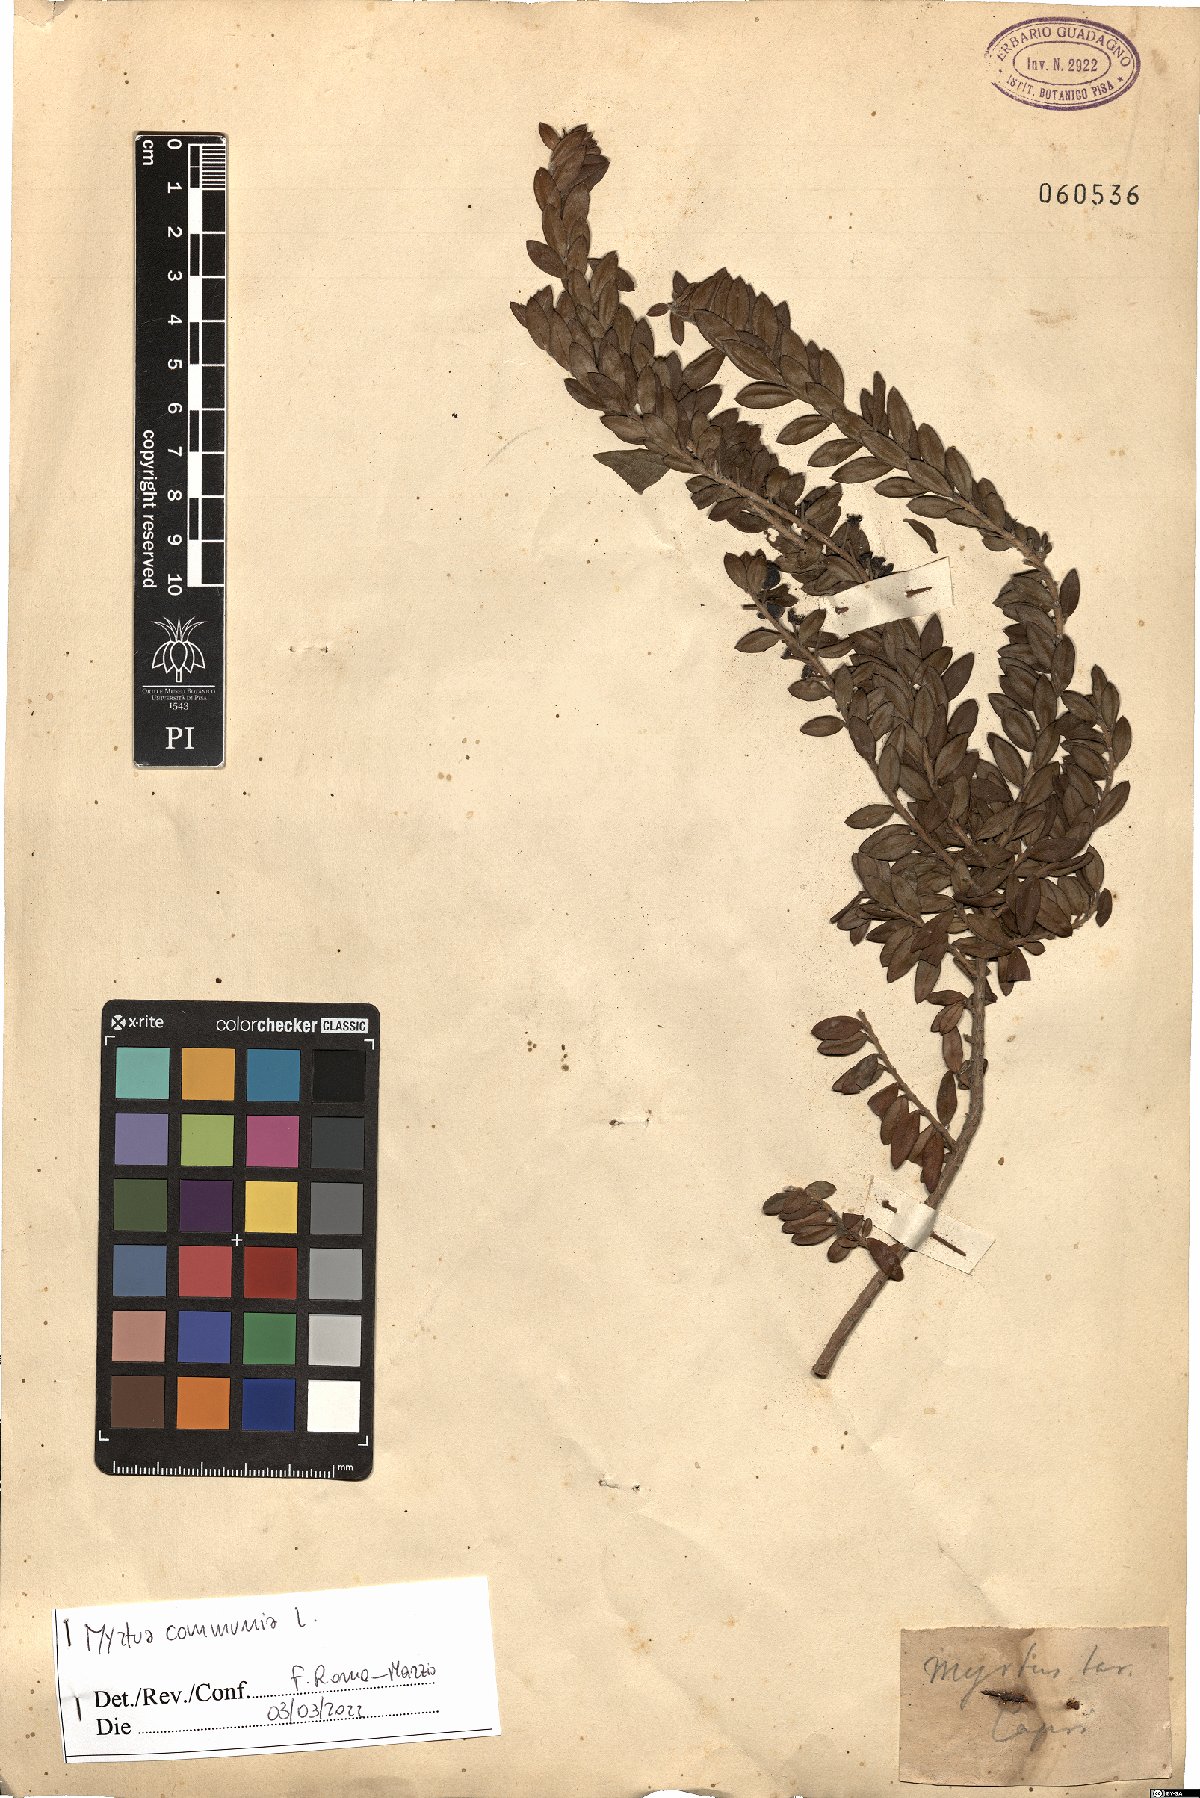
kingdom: Plantae
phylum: Tracheophyta
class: Magnoliopsida
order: Myrtales
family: Myrtaceae
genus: Myrtus
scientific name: Myrtus communis
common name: Myrtle
